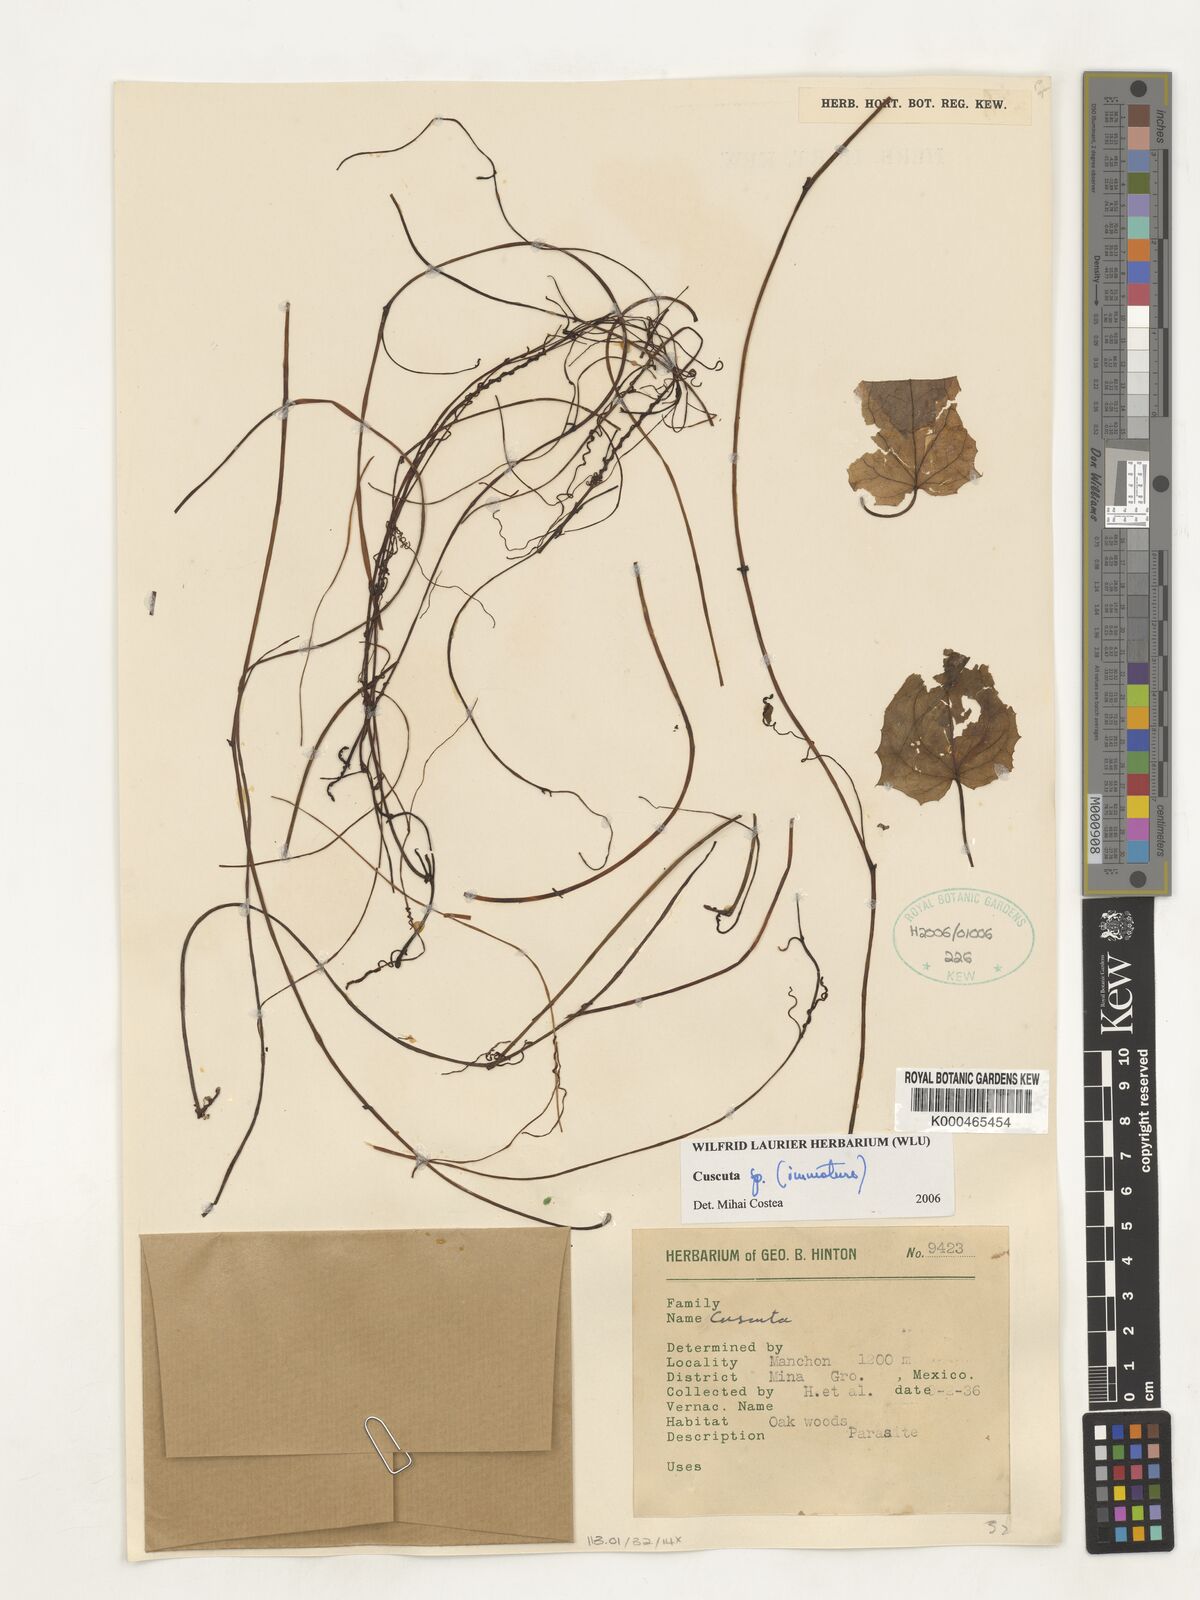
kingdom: Plantae
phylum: Tracheophyta
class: Magnoliopsida
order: Solanales
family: Convolvulaceae
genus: Cuscuta
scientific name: Cuscuta
